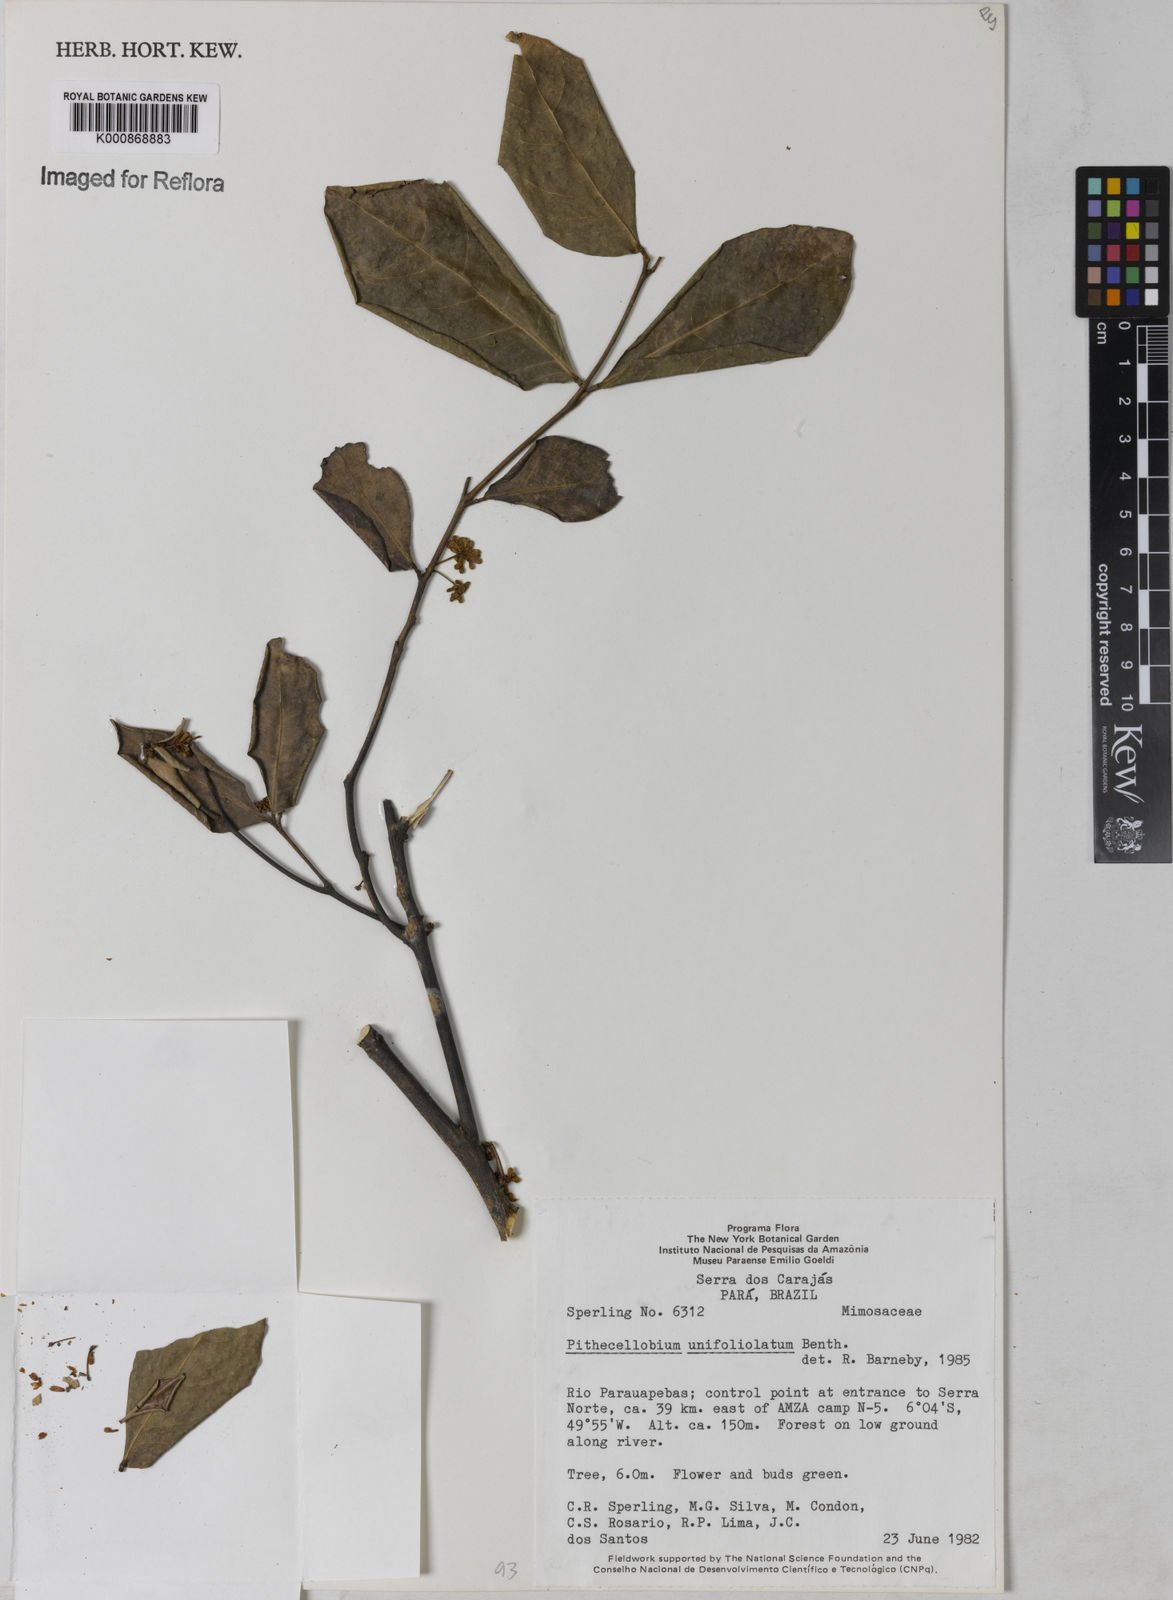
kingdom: Plantae
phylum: Tracheophyta
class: Magnoliopsida
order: Fabales
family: Fabaceae
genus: Zygia
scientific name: Zygia unifoliolata
